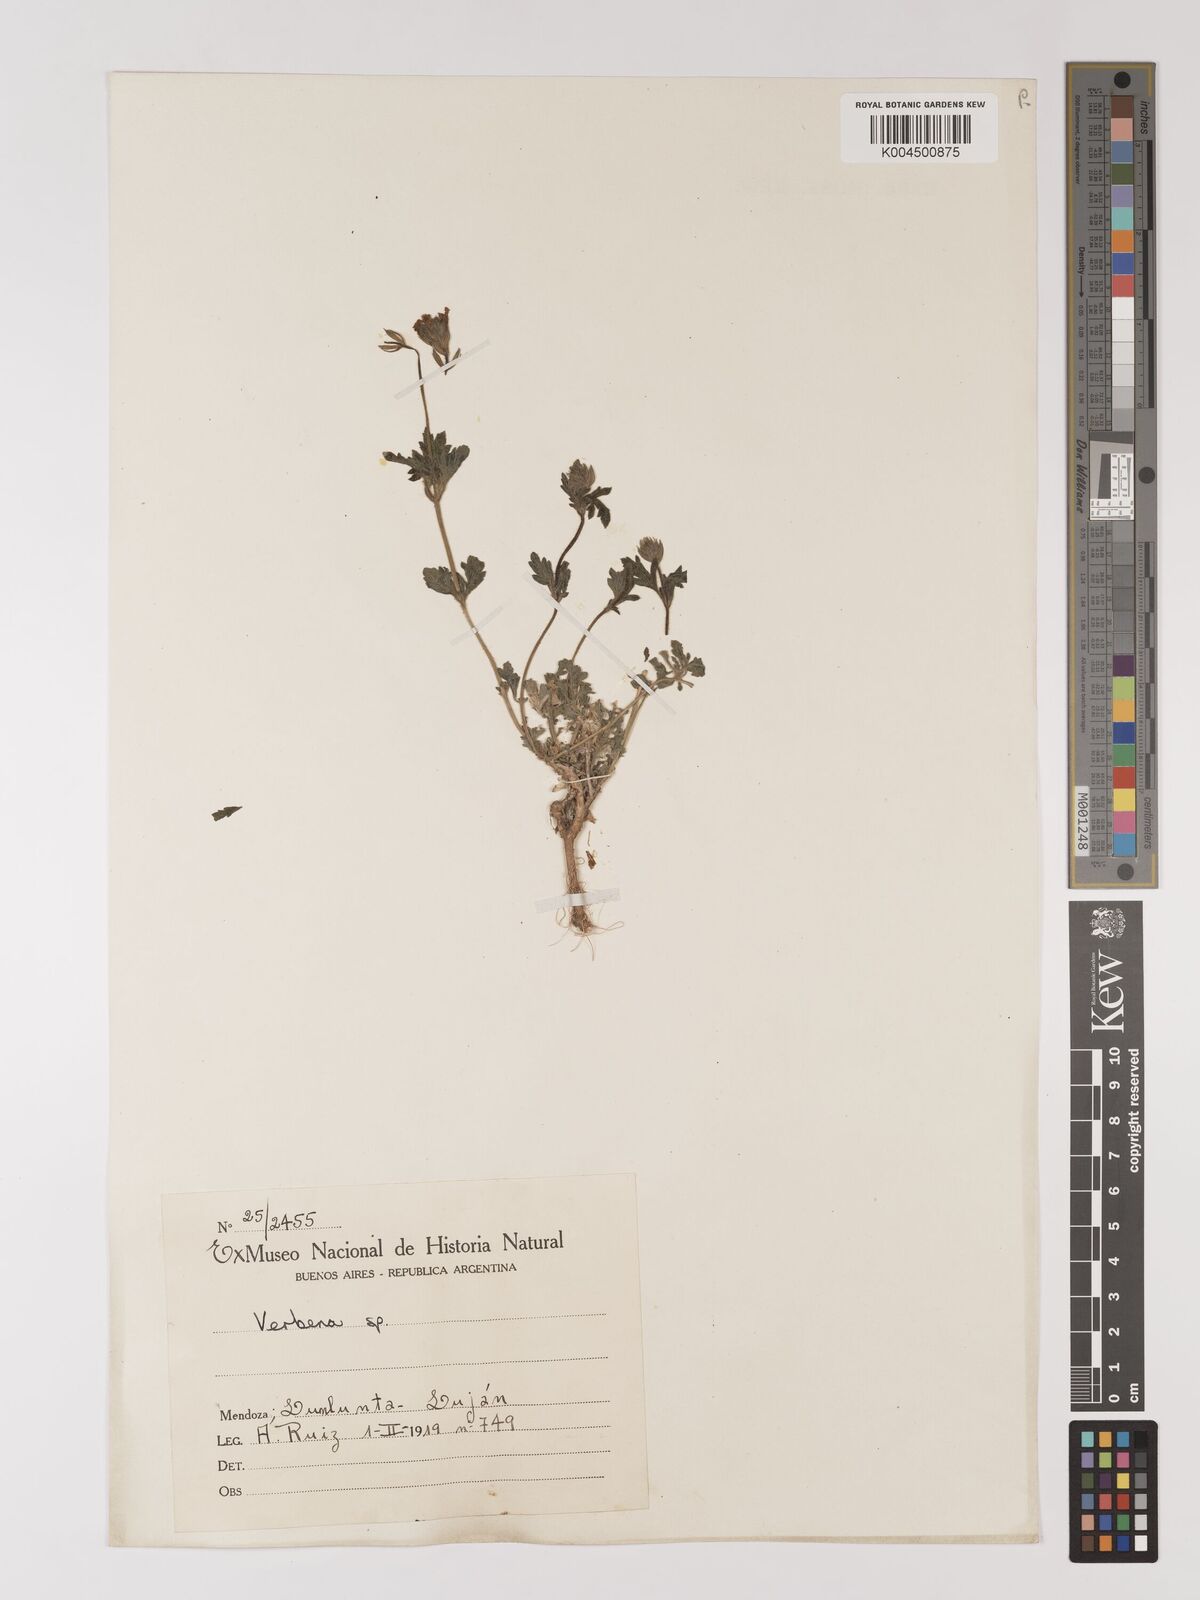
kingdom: Plantae
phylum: Tracheophyta
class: Magnoliopsida
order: Lamiales
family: Verbenaceae
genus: Verbena
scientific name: Verbena
